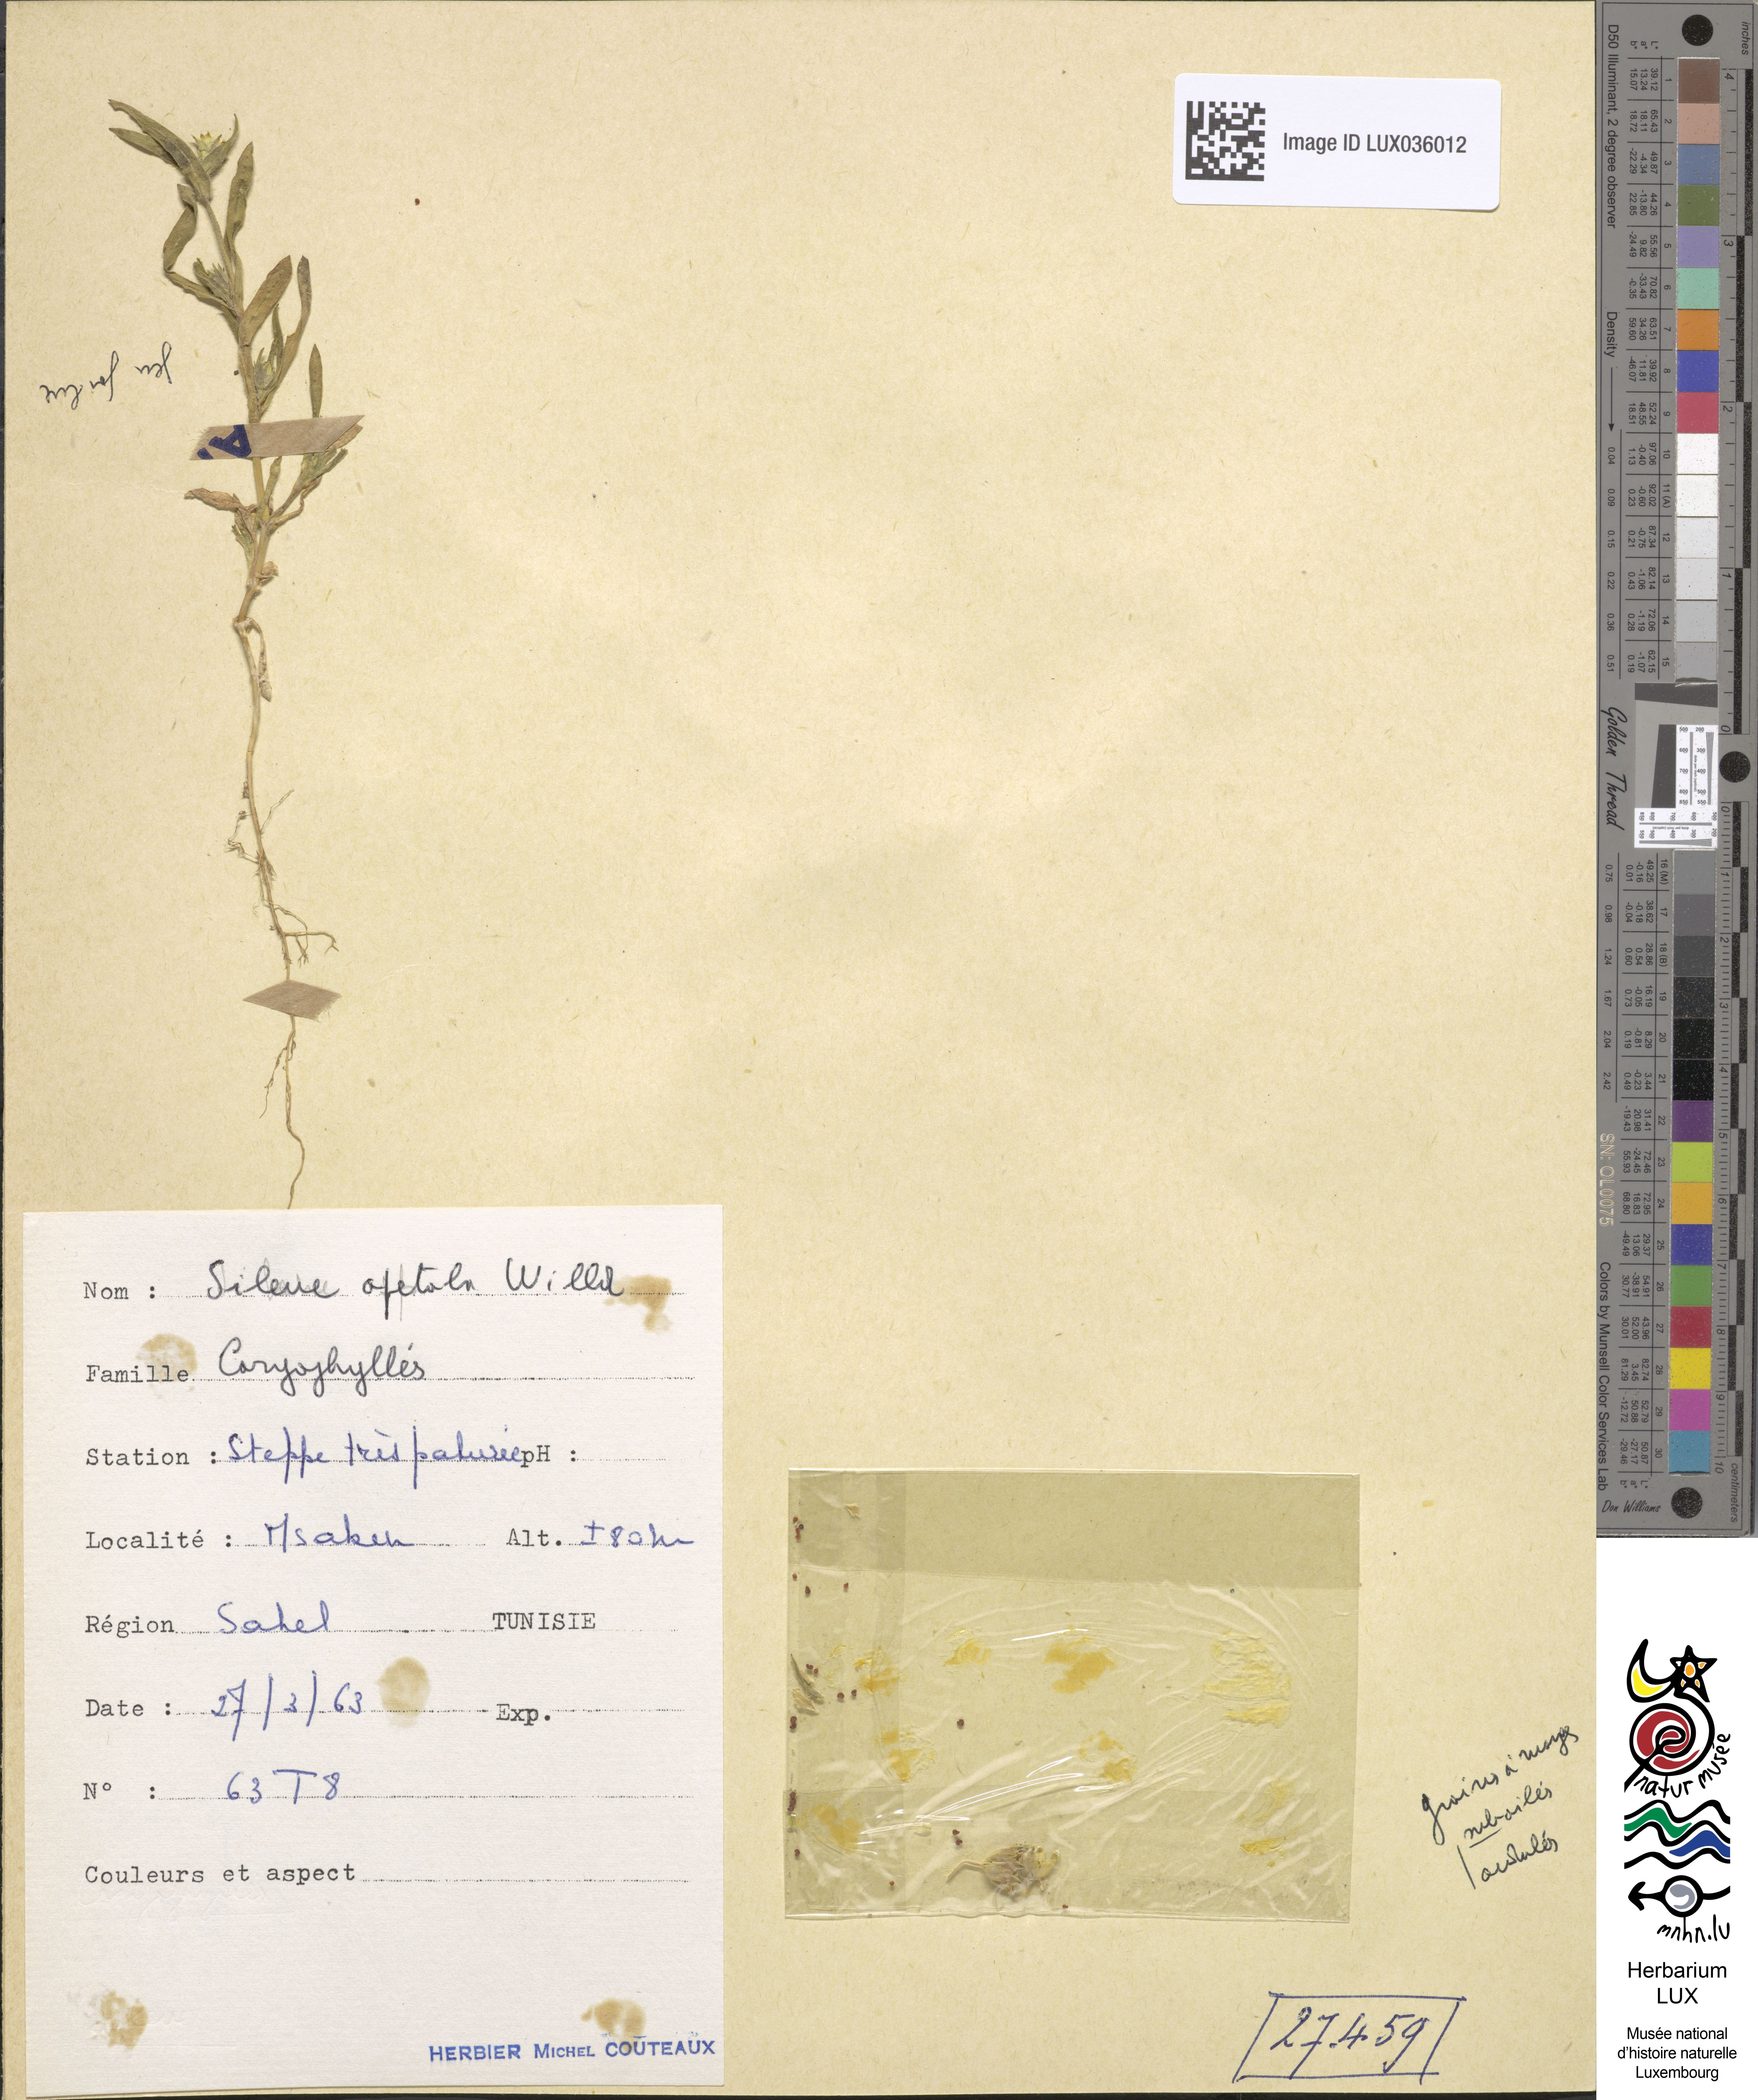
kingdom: Plantae
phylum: Tracheophyta
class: Magnoliopsida
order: Caryophyllales
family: Caryophyllaceae
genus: Silene
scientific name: Silene apetala
